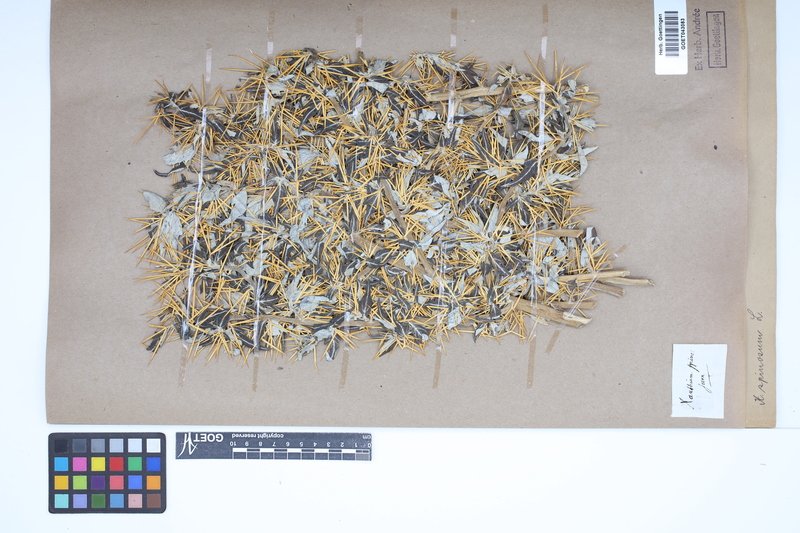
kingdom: Plantae
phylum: Tracheophyta
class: Magnoliopsida
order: Asterales
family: Asteraceae
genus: Xanthium
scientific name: Xanthium spinosum
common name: Spiny cocklebur
